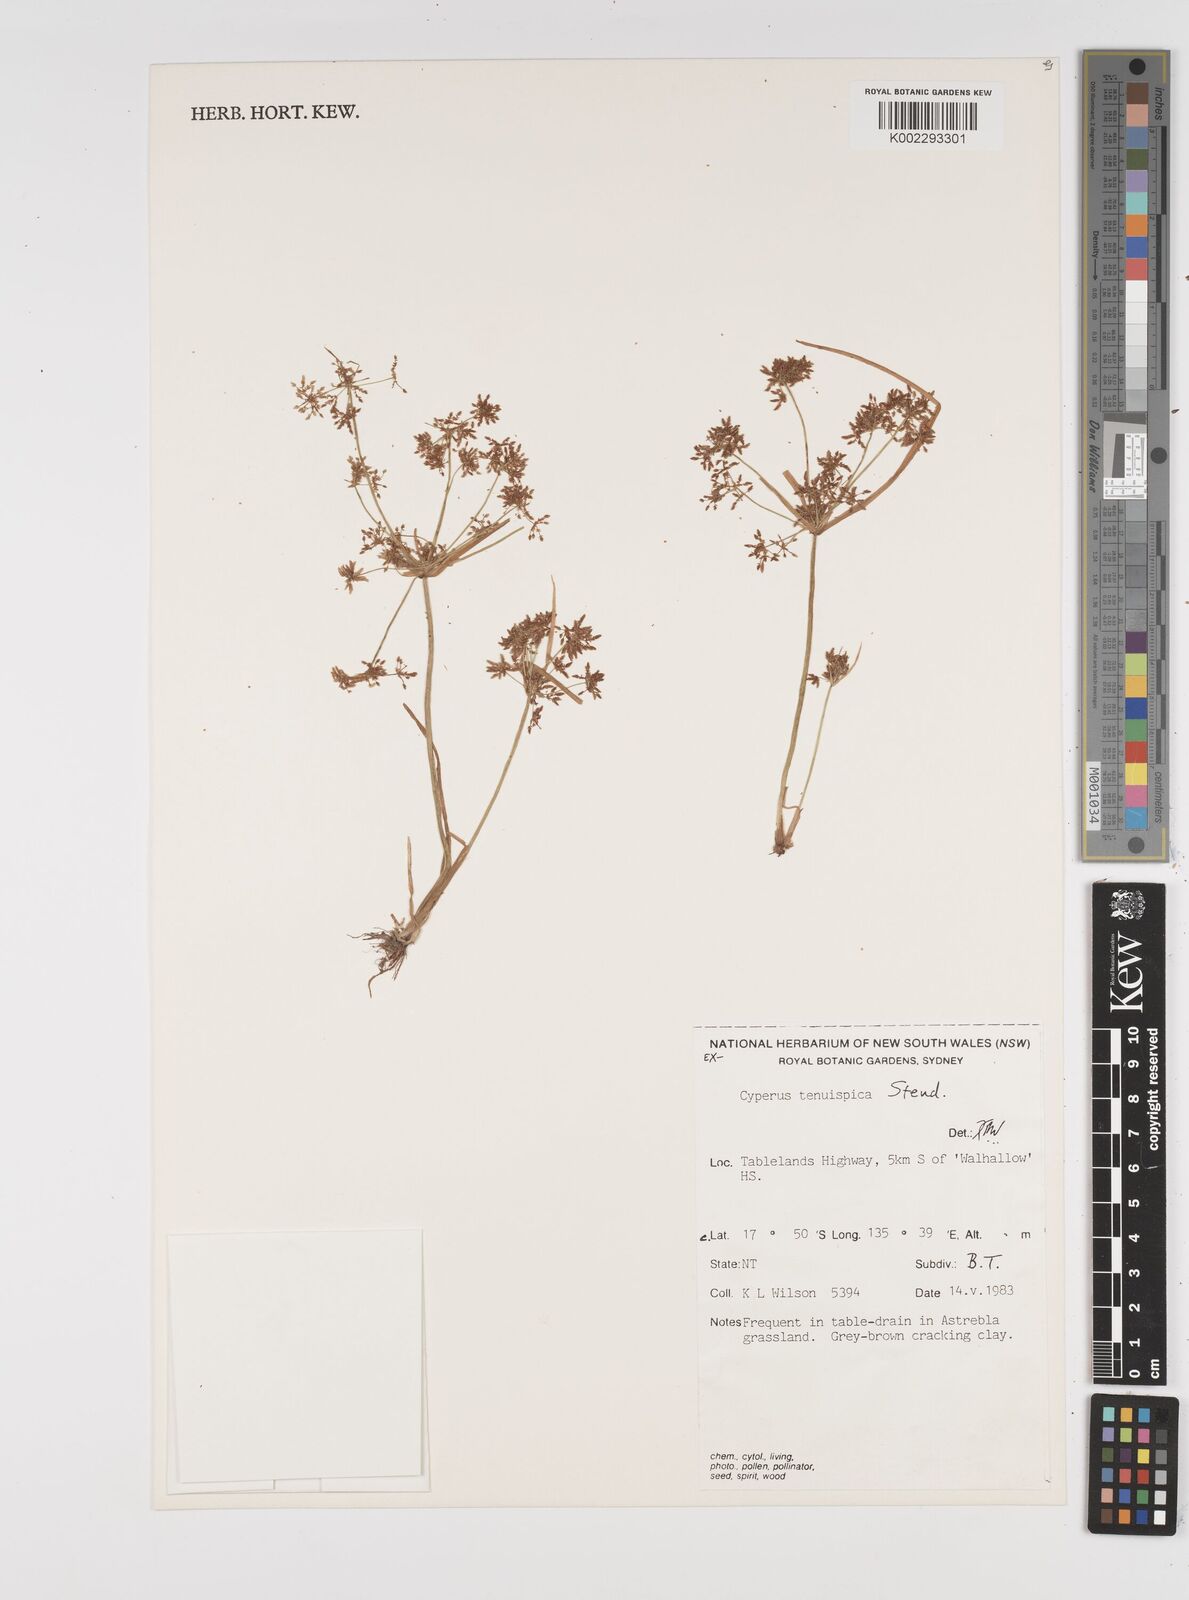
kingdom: Plantae
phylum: Tracheophyta
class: Liliopsida
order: Poales
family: Cyperaceae
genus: Cyperus
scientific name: Cyperus tenuispica
